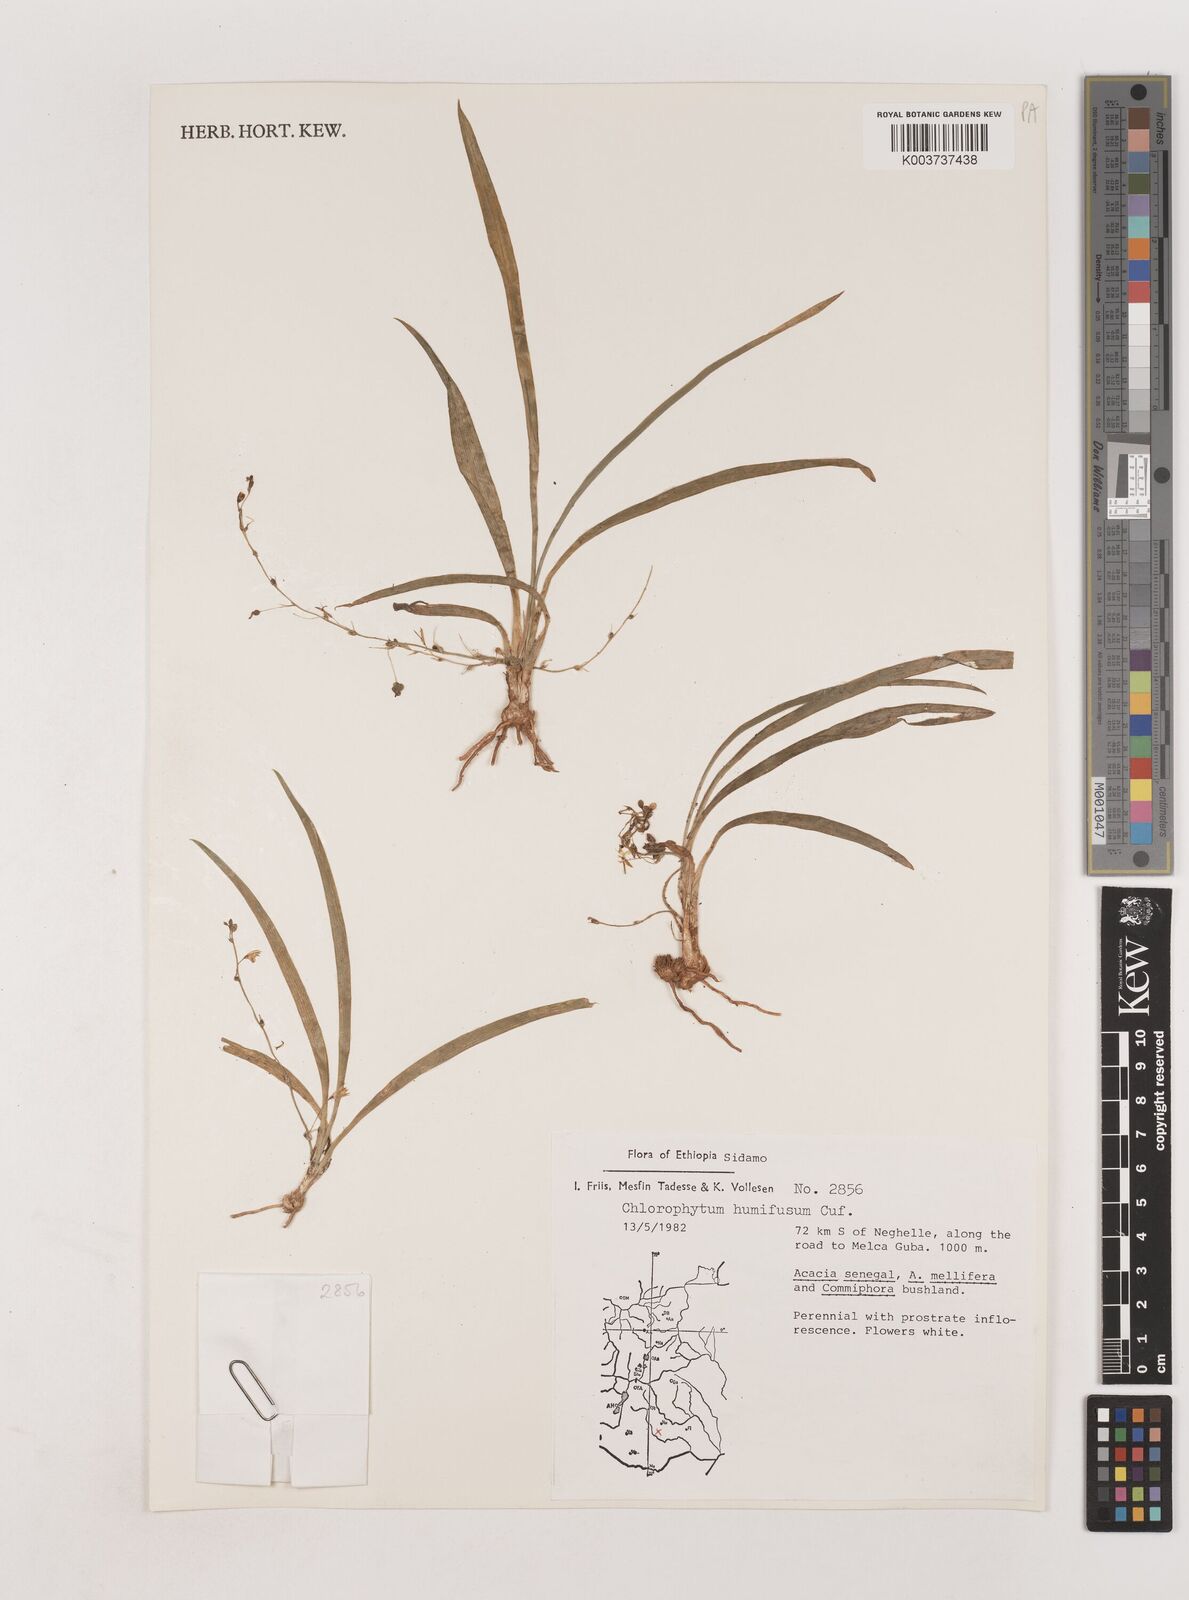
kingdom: Plantae
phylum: Tracheophyta
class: Liliopsida
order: Asparagales
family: Asparagaceae
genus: Chlorophytum
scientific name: Chlorophytum humifusum
